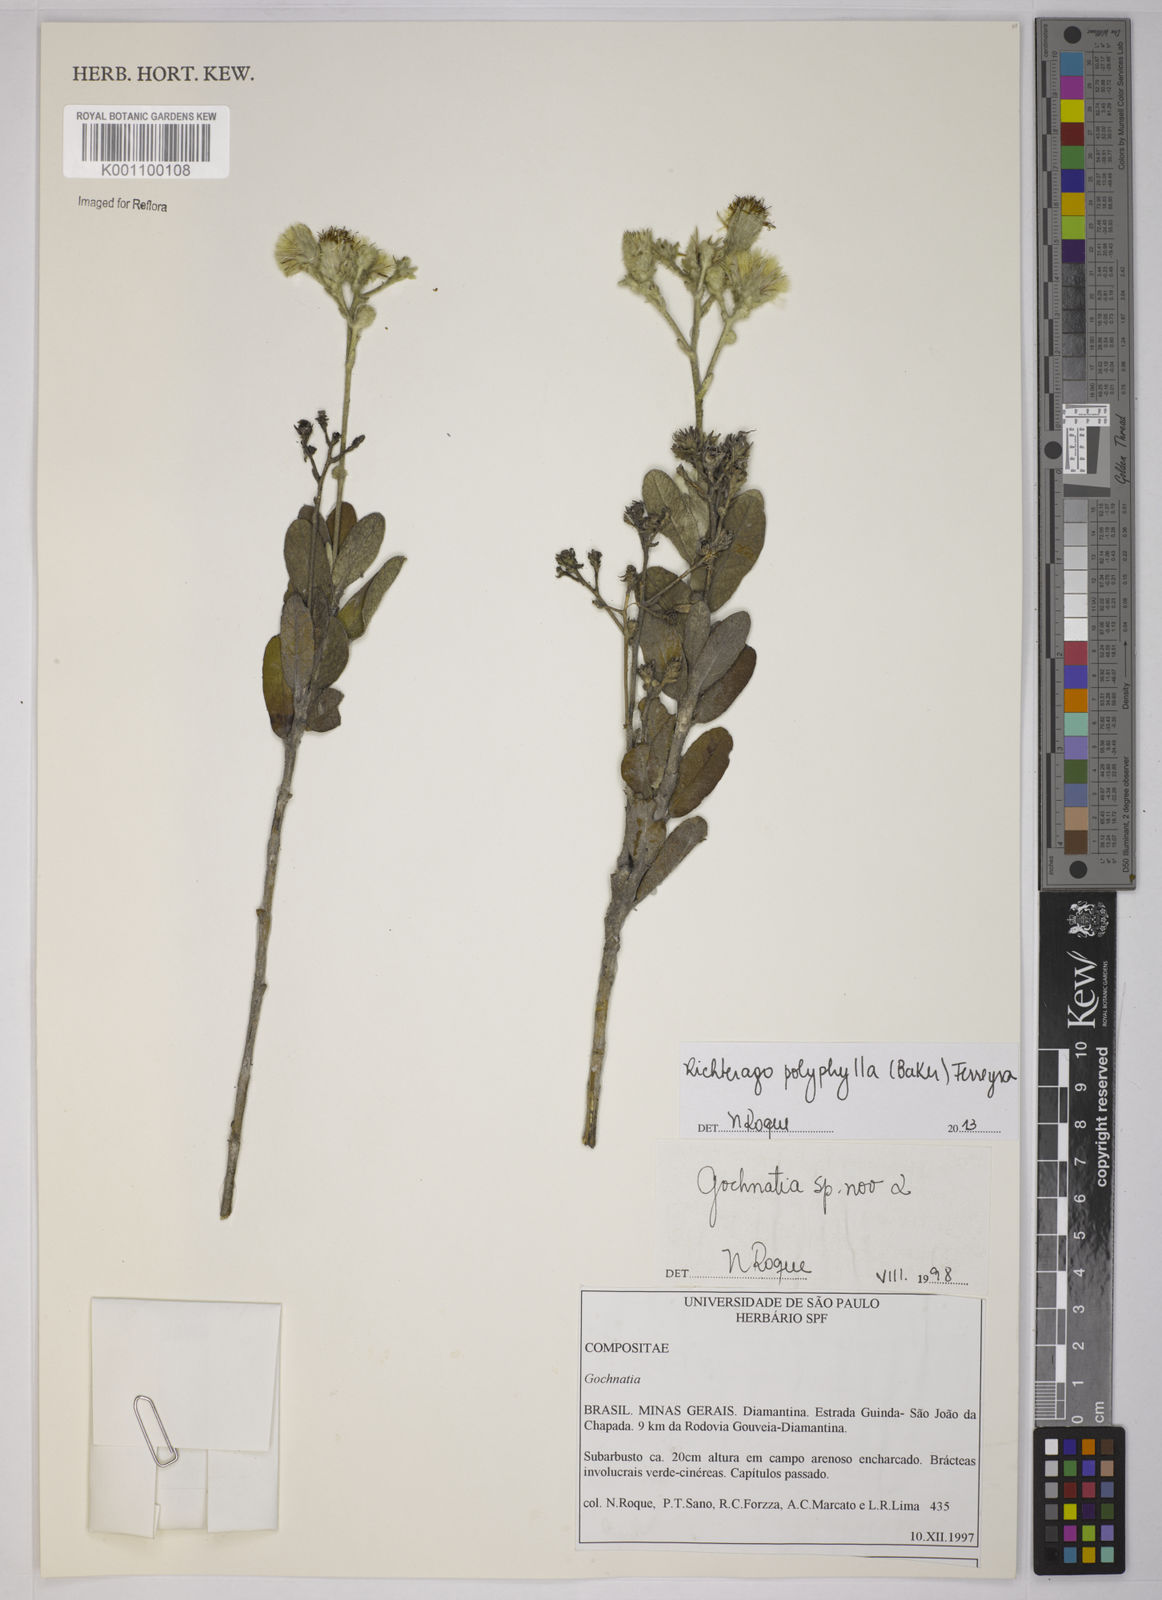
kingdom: Plantae
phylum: Tracheophyta
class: Magnoliopsida
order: Asterales
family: Asteraceae
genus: Richterago
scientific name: Richterago polyphylla
